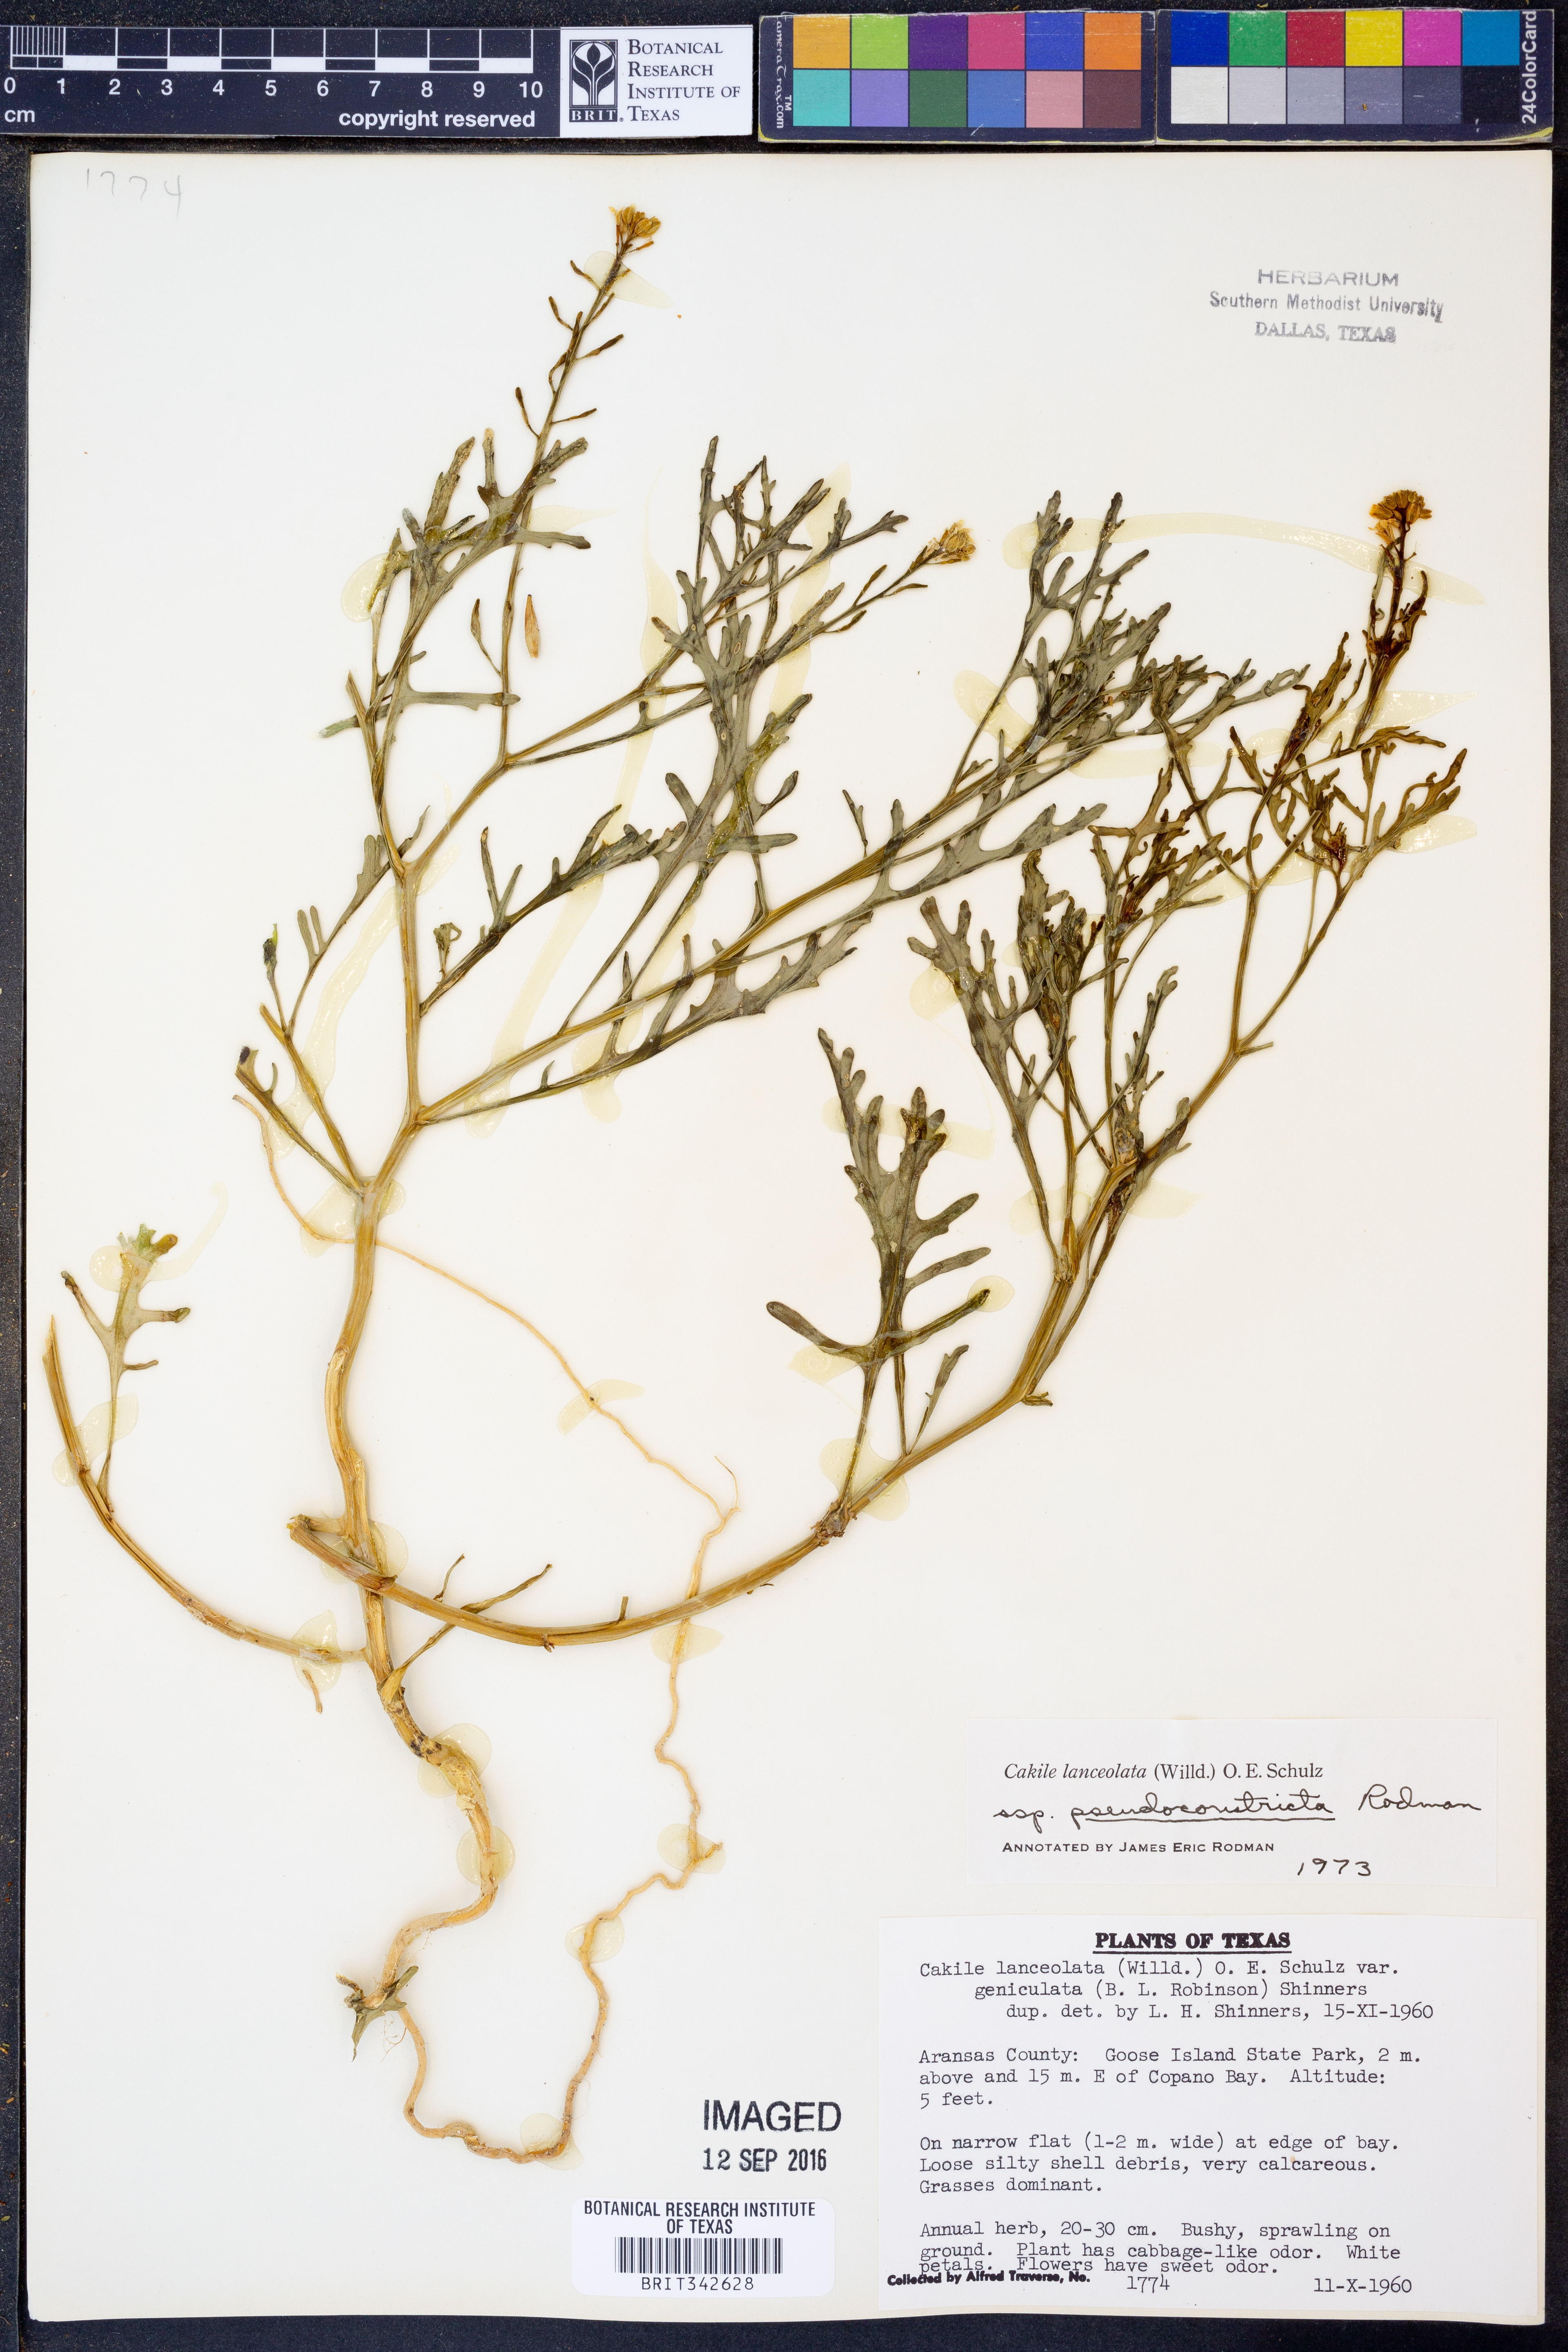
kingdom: Plantae
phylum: Tracheophyta
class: Magnoliopsida
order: Brassicales
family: Brassicaceae
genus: Cakile
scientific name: Cakile lanceolata
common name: Sea rocket
